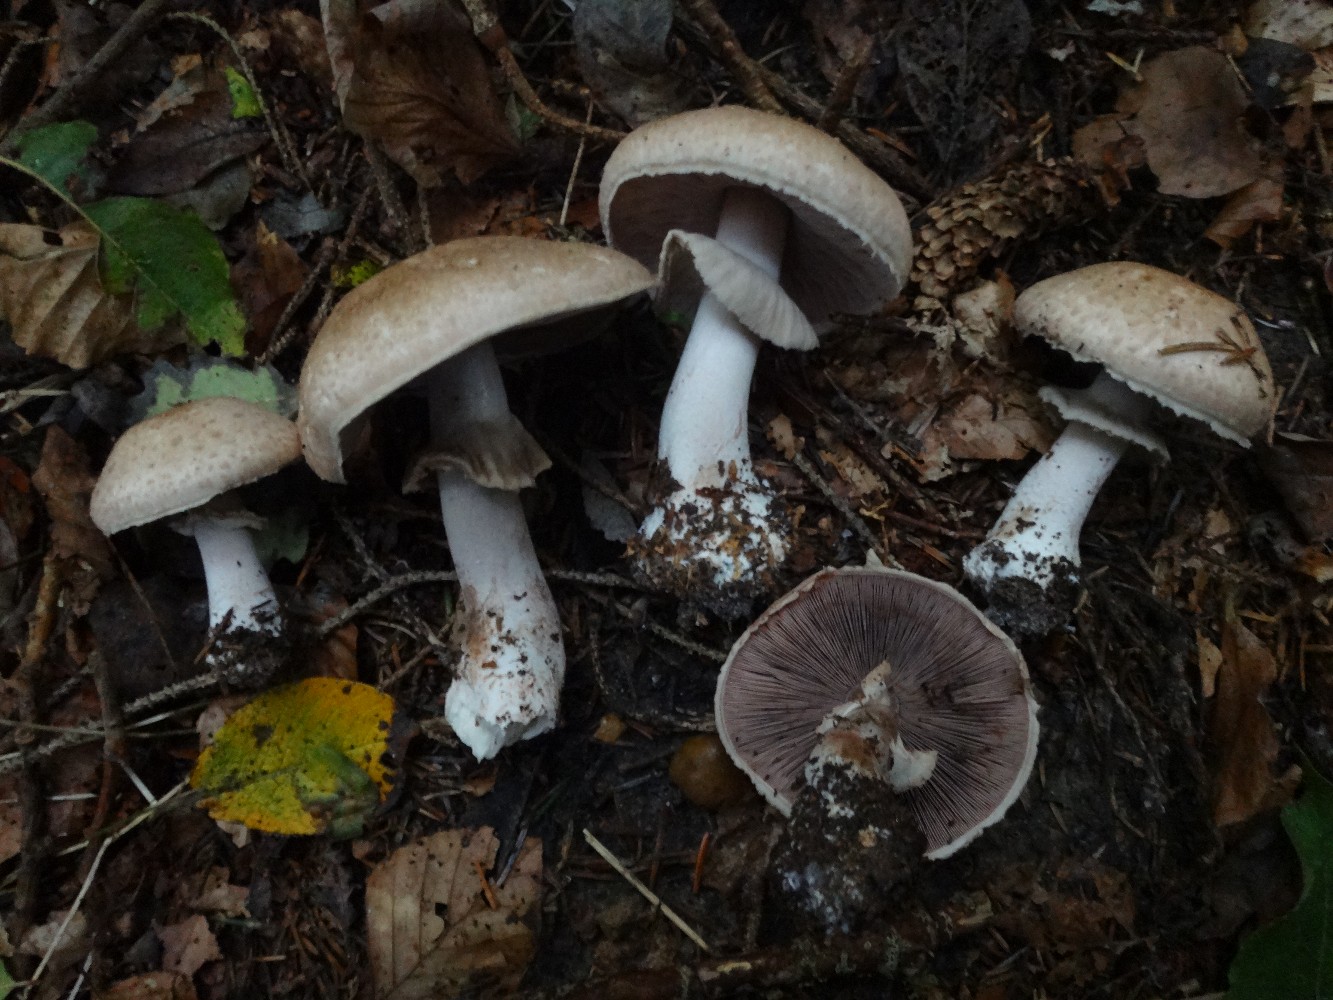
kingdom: Fungi
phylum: Basidiomycota
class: Agaricomycetes
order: Agaricales
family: Agaricaceae
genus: Agaricus
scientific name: Agaricus sylvaticus
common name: lille blod-champignon
